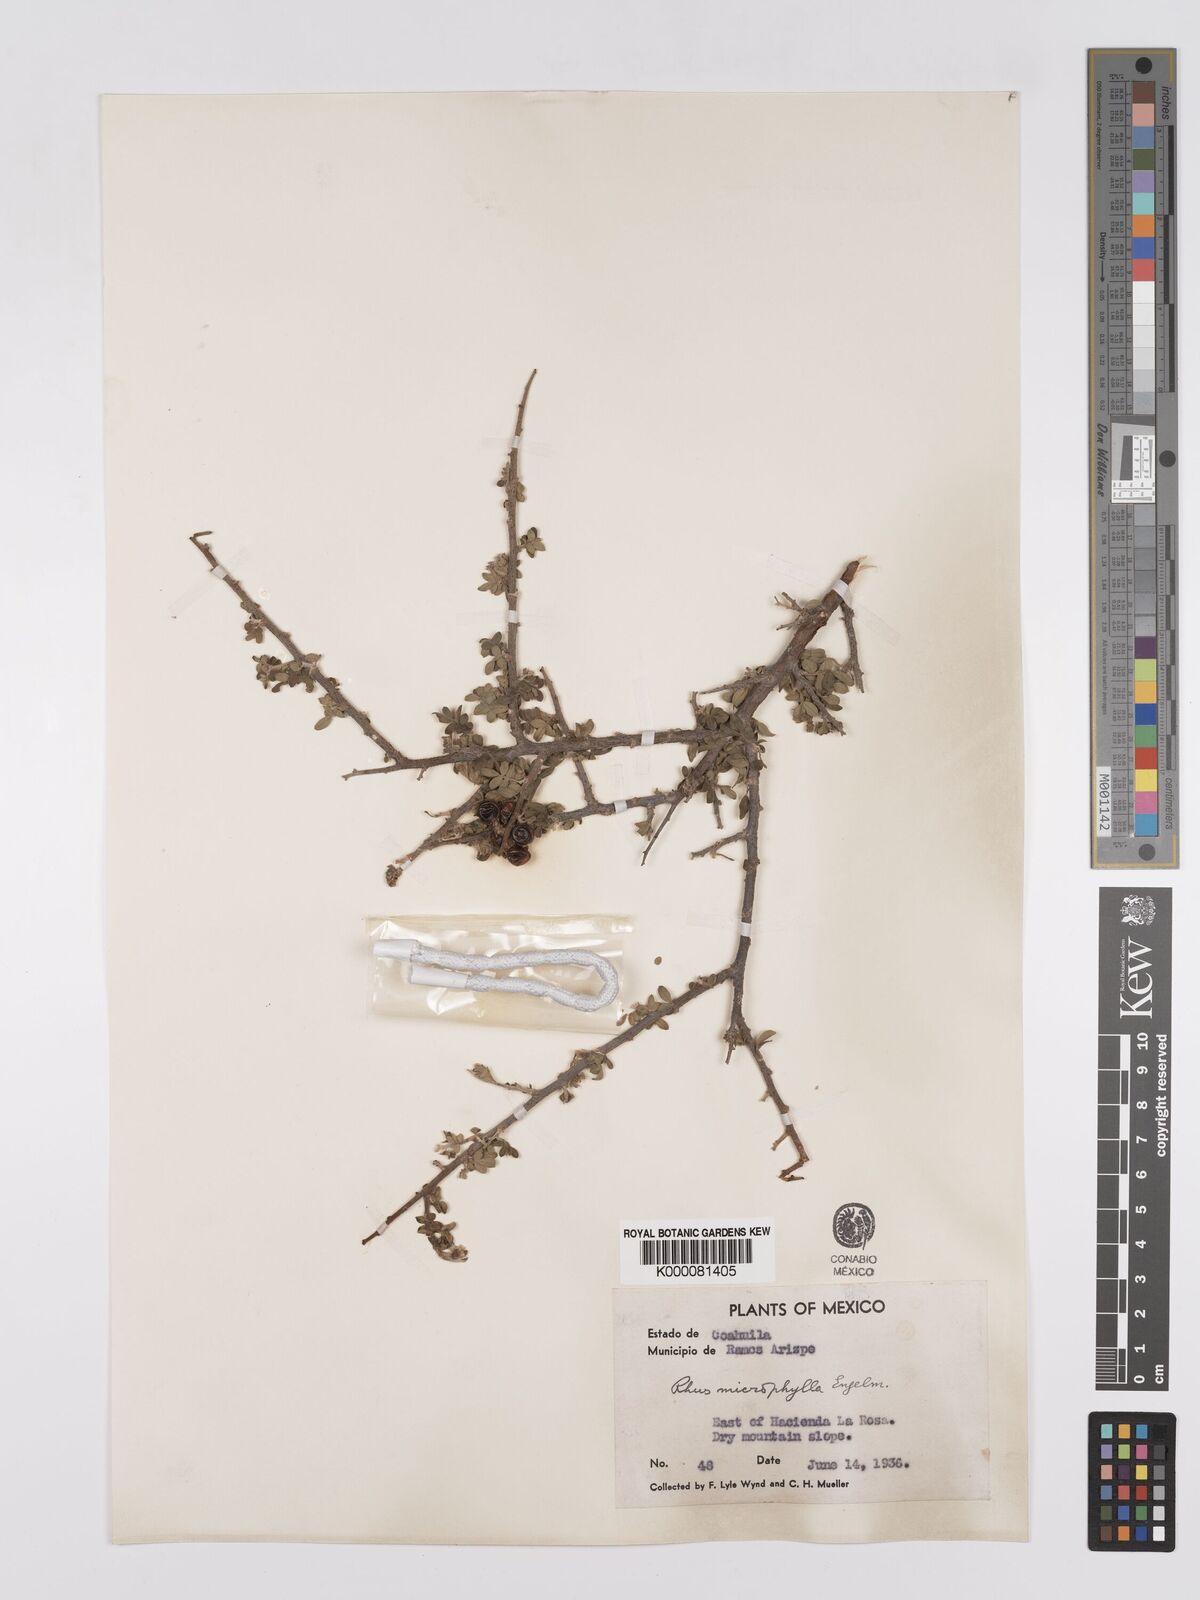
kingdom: Plantae
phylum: Tracheophyta
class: Magnoliopsida
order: Sapindales
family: Anacardiaceae
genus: Rhus
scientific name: Rhus
